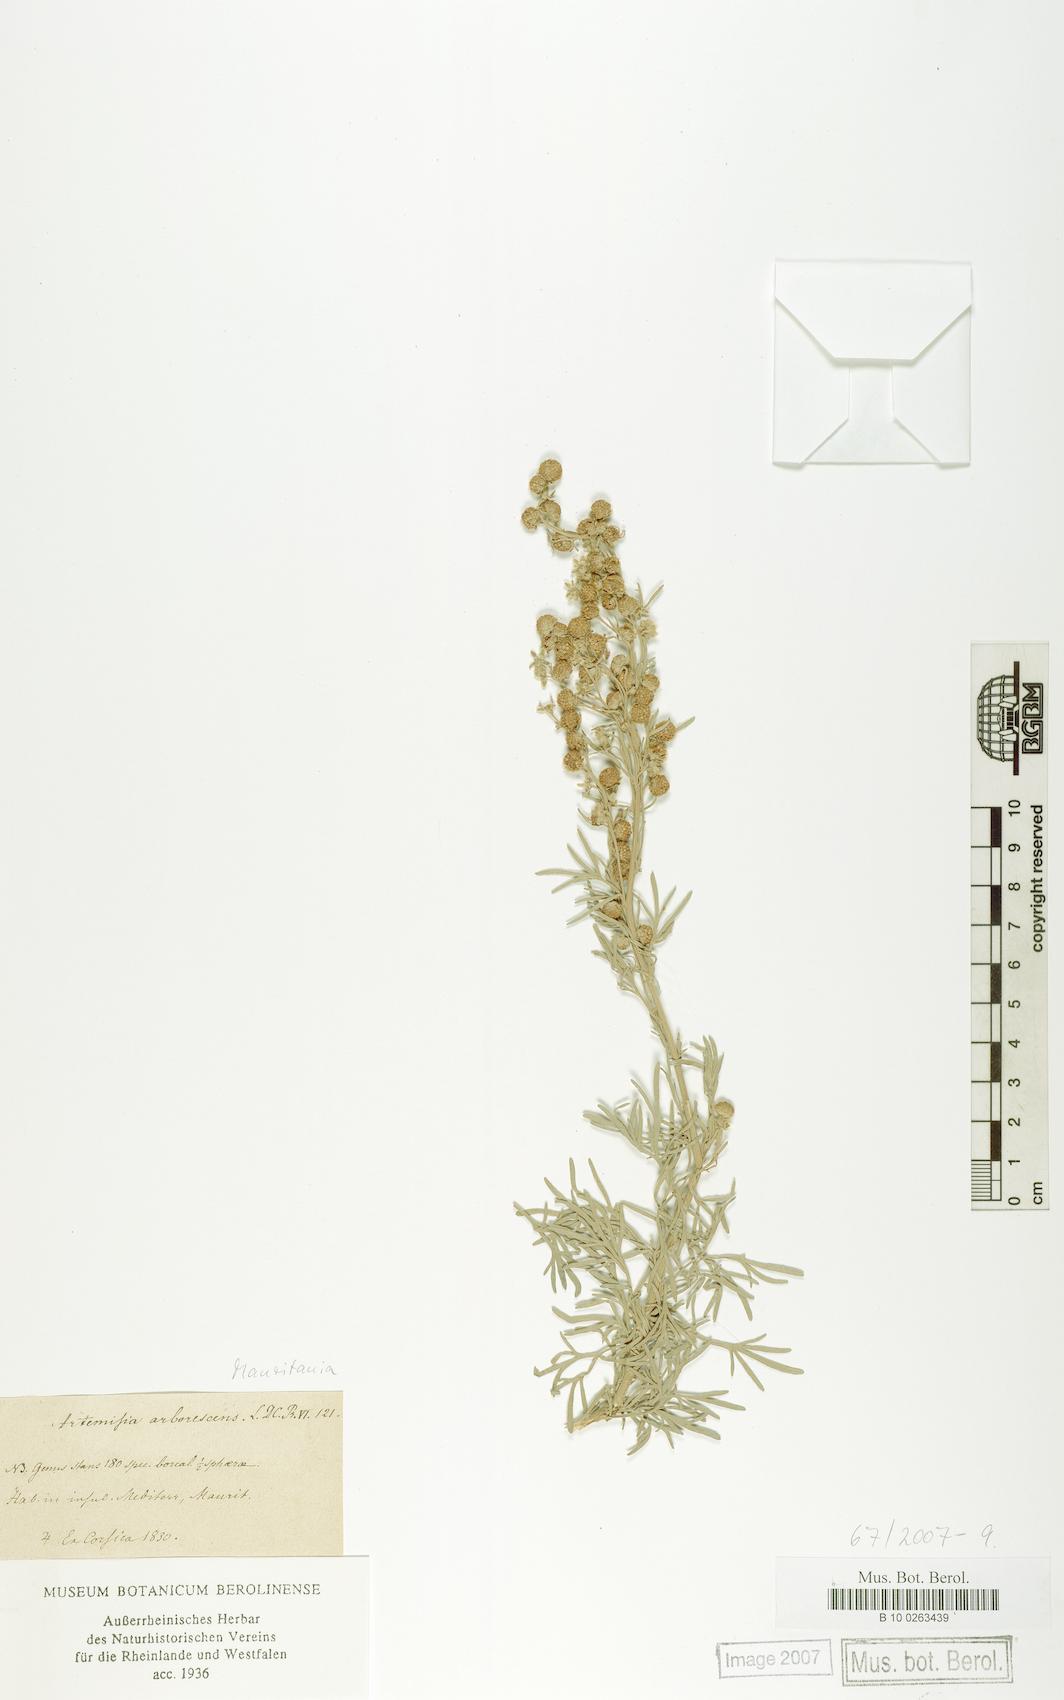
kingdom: Plantae
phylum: Tracheophyta
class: Magnoliopsida
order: Asterales
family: Asteraceae
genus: Artemisia
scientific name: Artemisia arborescens
